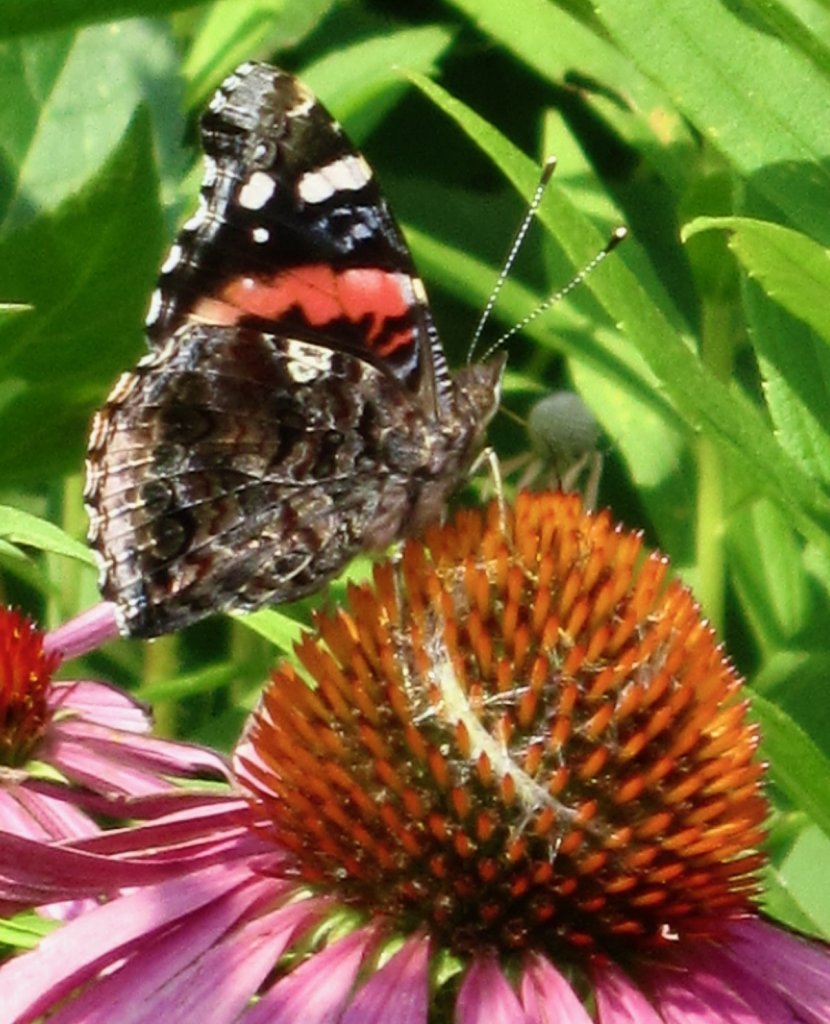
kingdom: Animalia
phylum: Arthropoda
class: Insecta
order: Lepidoptera
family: Nymphalidae
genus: Vanessa
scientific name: Vanessa atalanta
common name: Red Admiral
